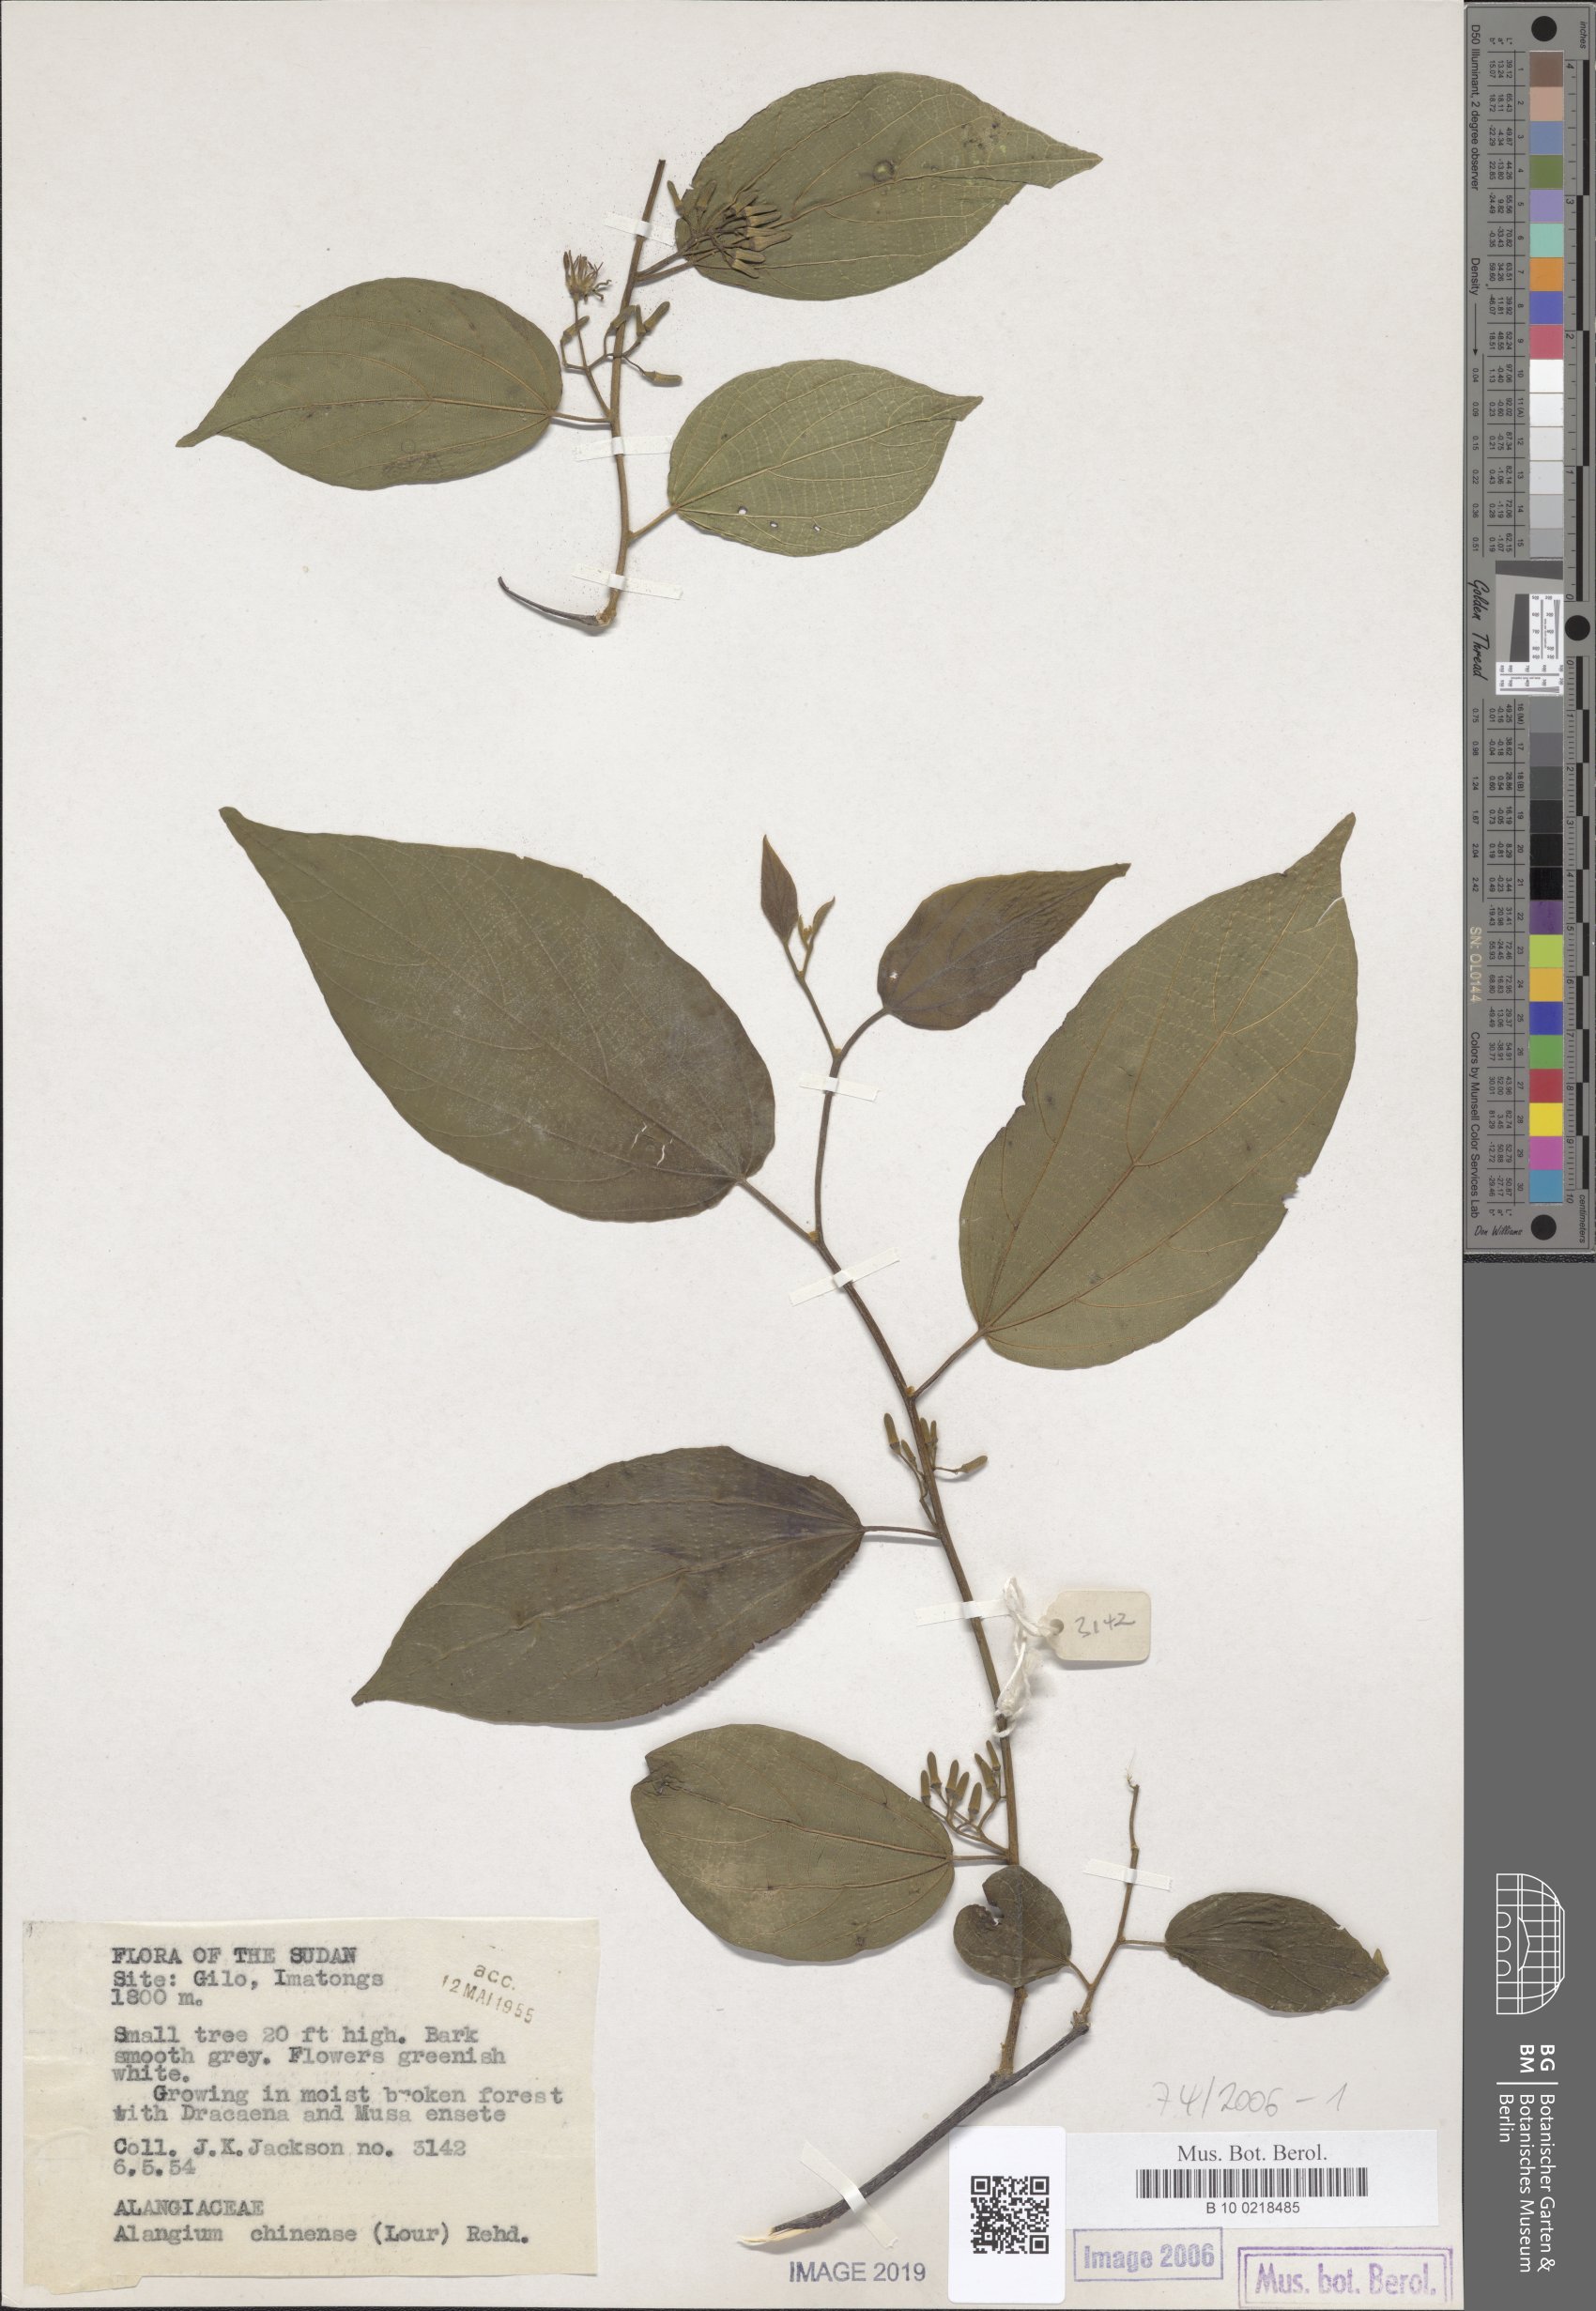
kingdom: Plantae
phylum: Tracheophyta
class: Magnoliopsida
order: Cornales
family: Cornaceae
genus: Alangium
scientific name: Alangium chinense
